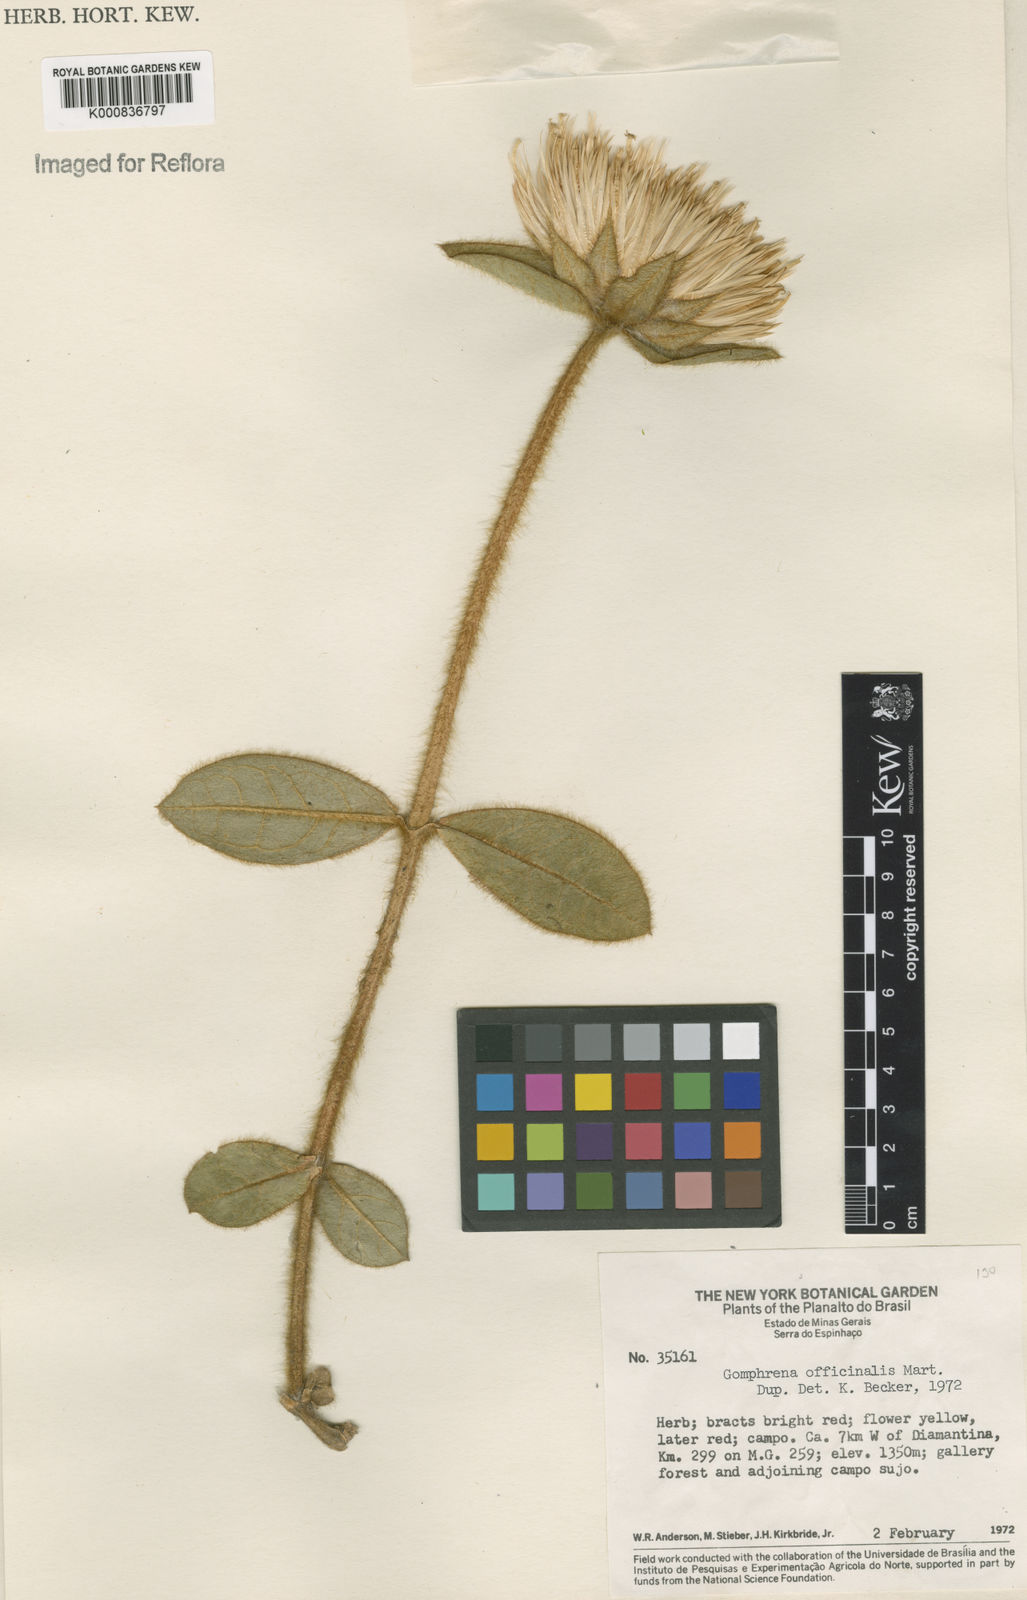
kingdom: Plantae
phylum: Tracheophyta
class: Magnoliopsida
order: Caryophyllales
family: Amaranthaceae
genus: Gomphrena
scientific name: Gomphrena arborescens
